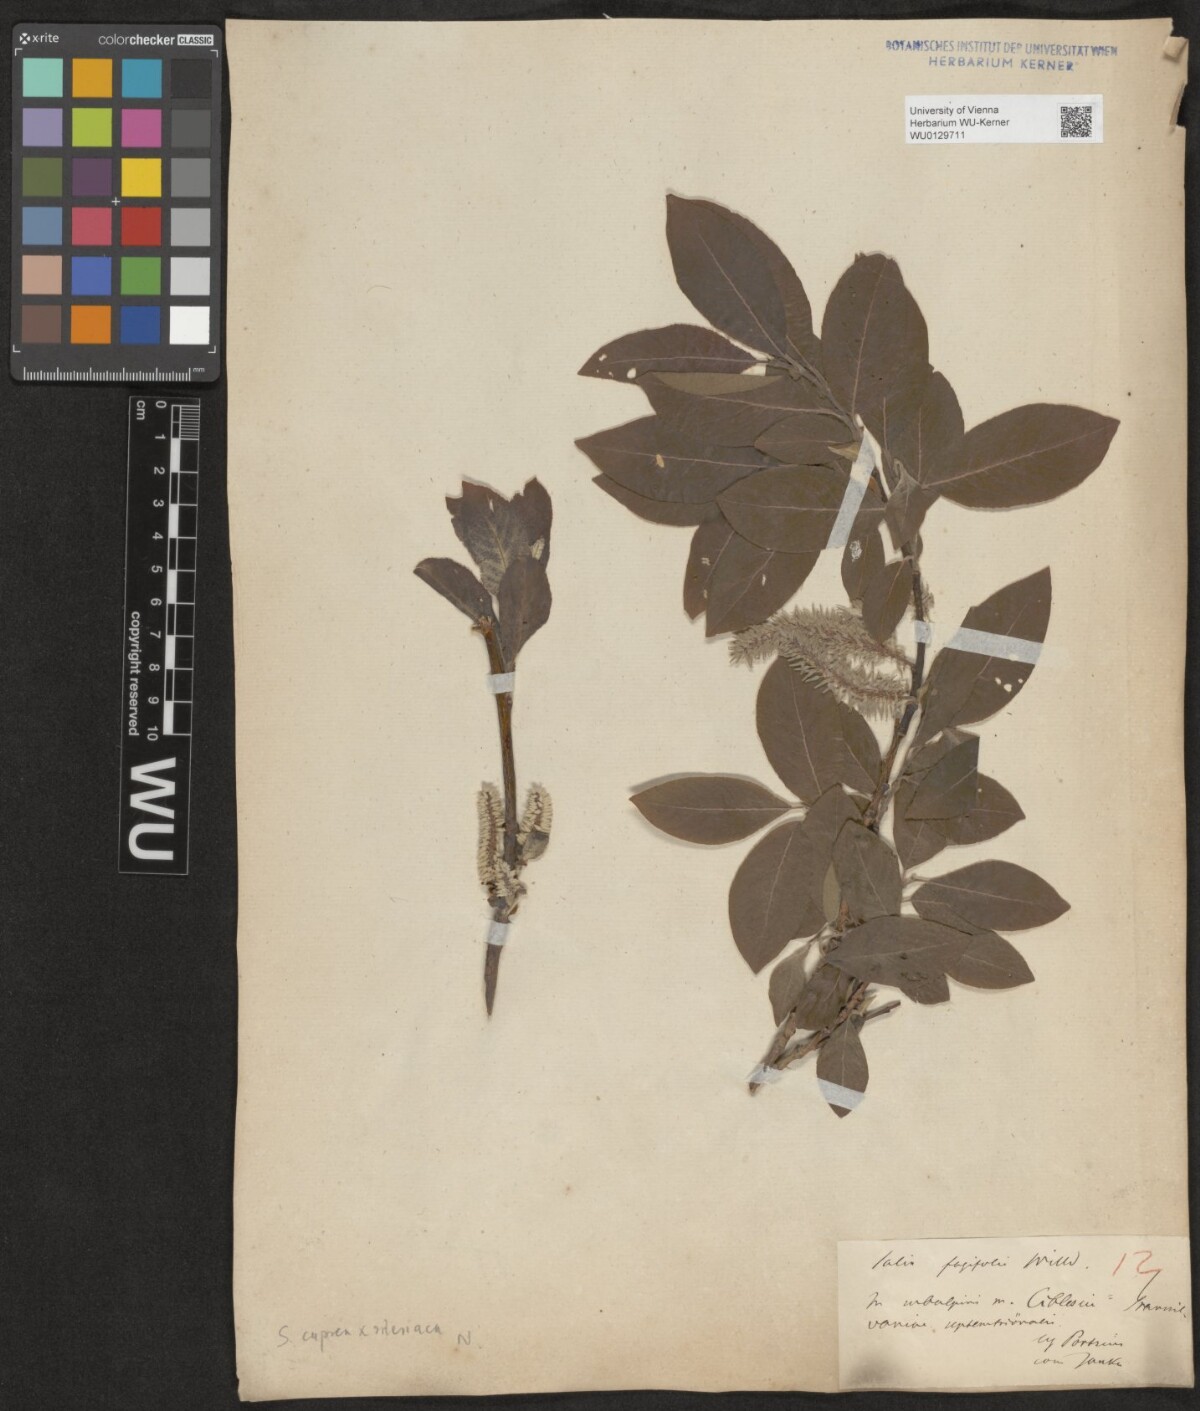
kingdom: Plantae
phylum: Tracheophyta
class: Magnoliopsida
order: Malpighiales
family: Salicaceae
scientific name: Salicaceae
